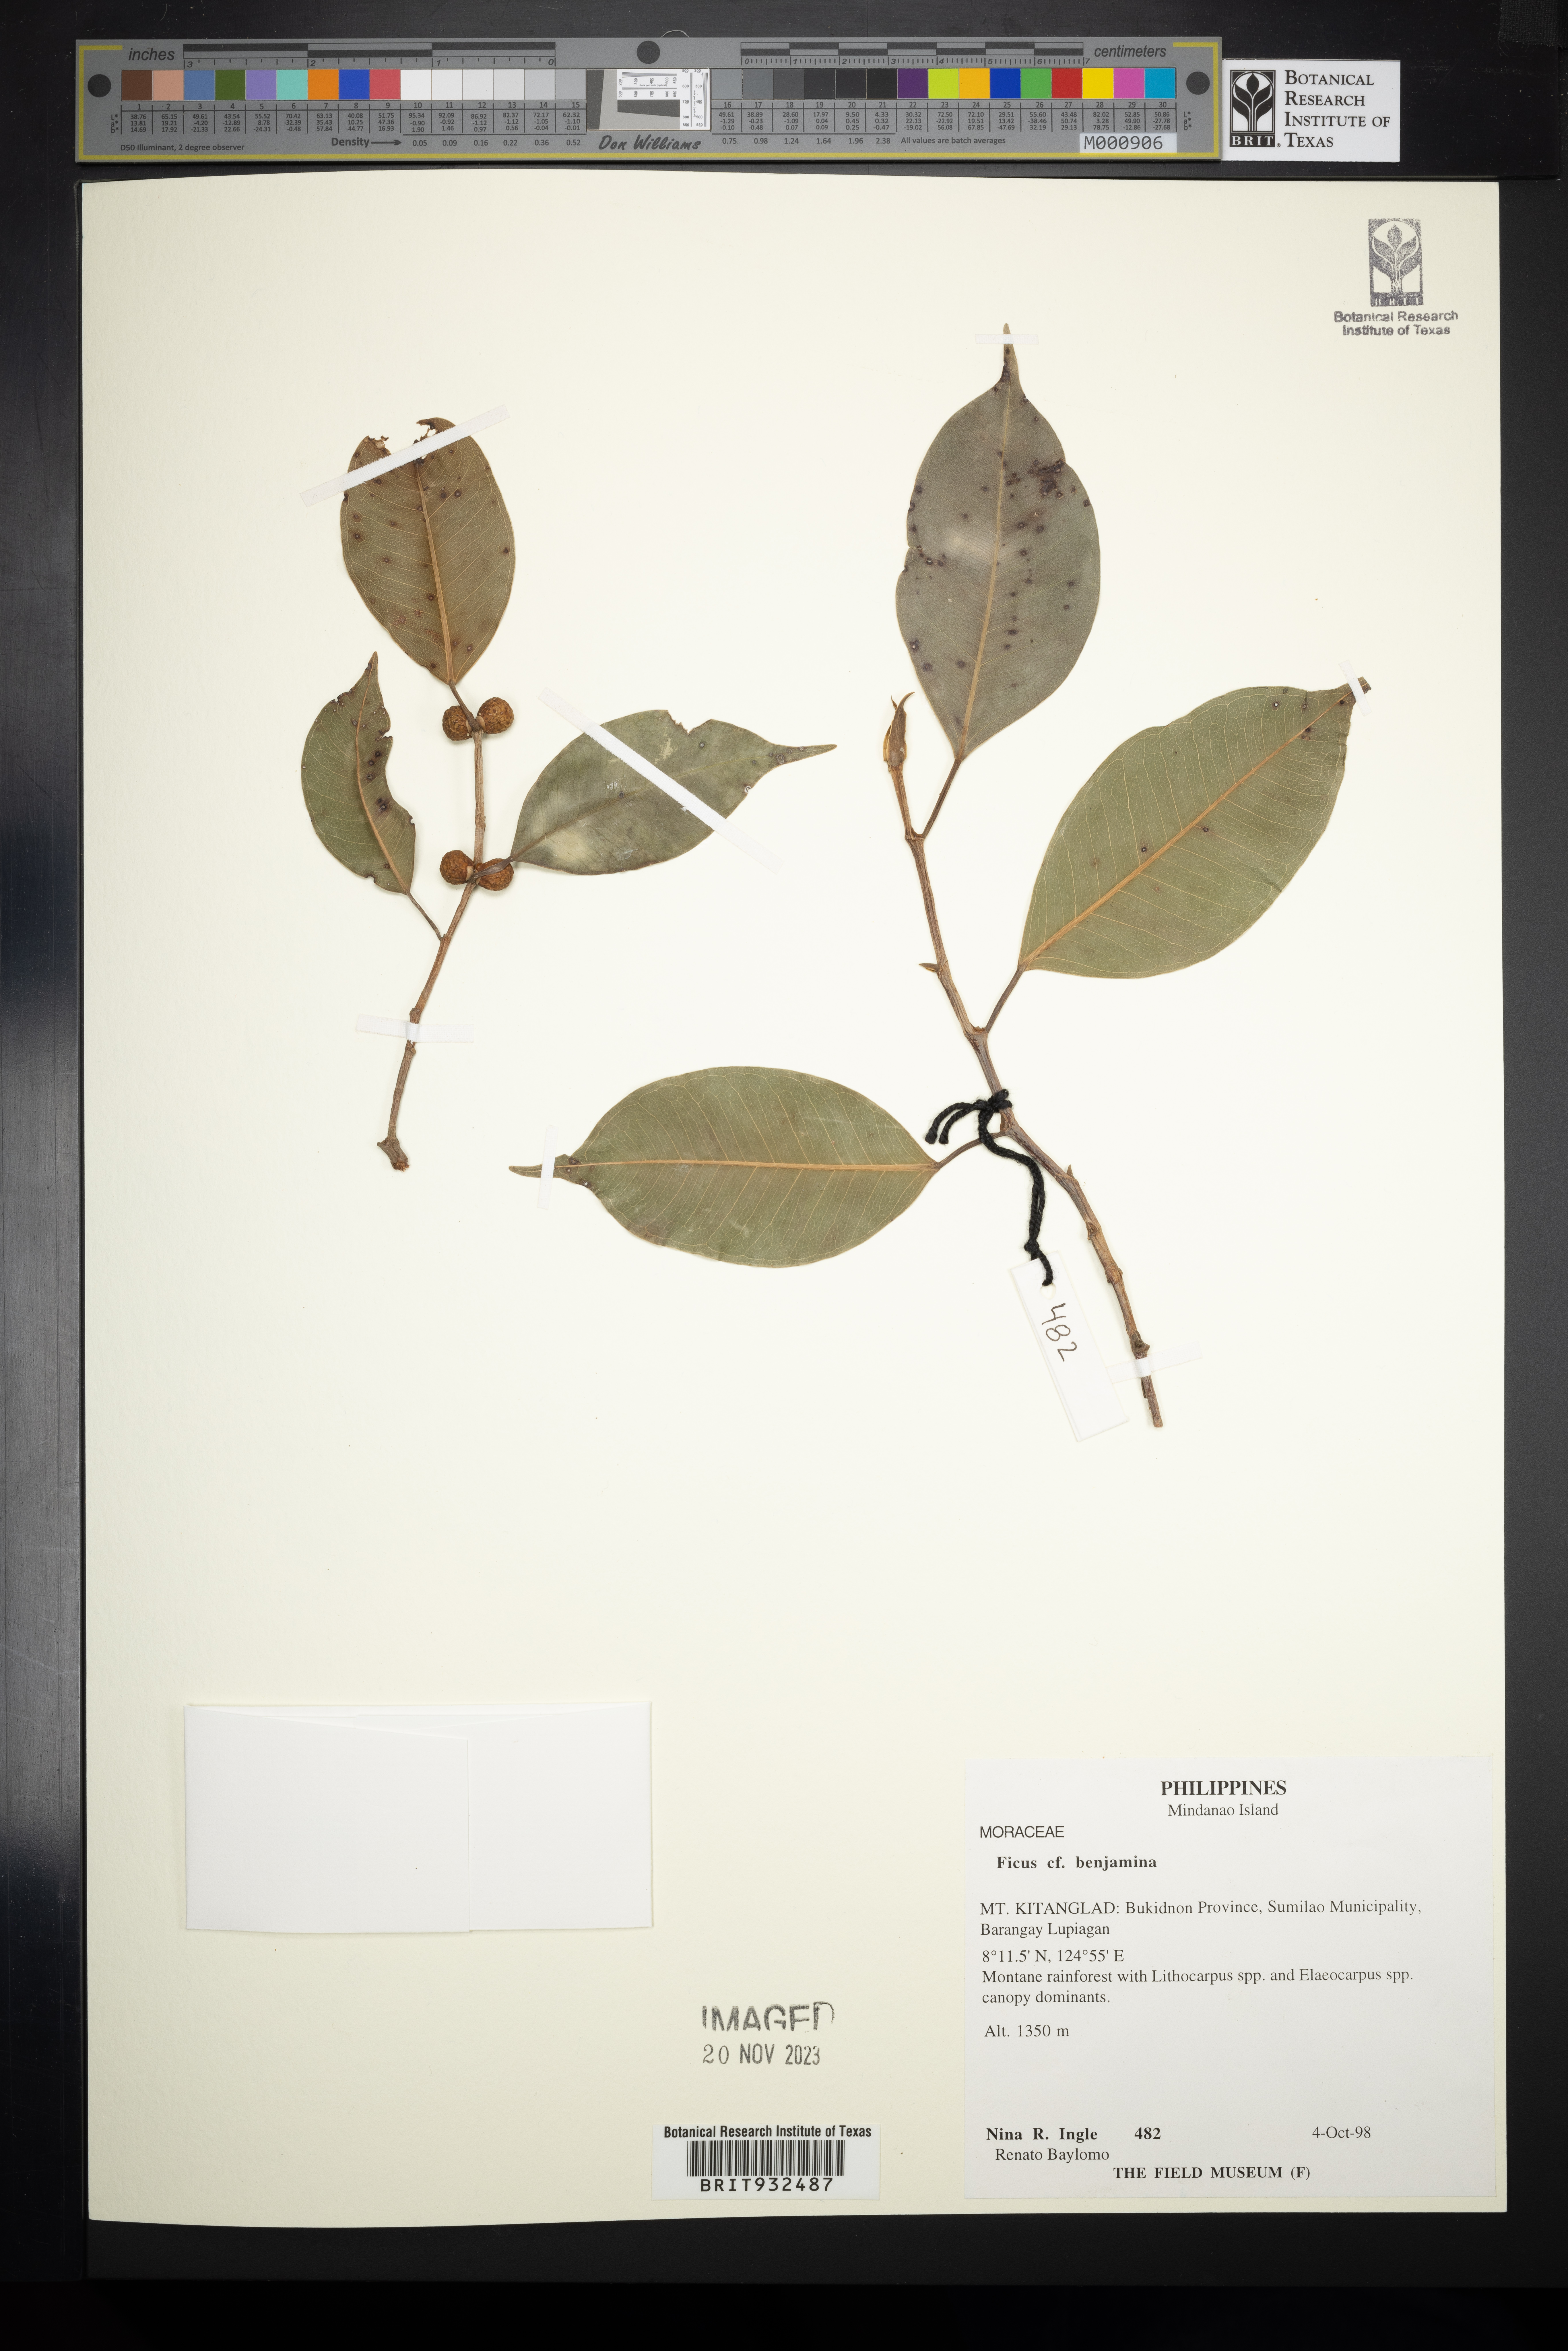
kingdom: Plantae
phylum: Tracheophyta
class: Magnoliopsida
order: Rosales
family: Moraceae
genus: Ficus
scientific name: Ficus benjamina
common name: Weeping fig
